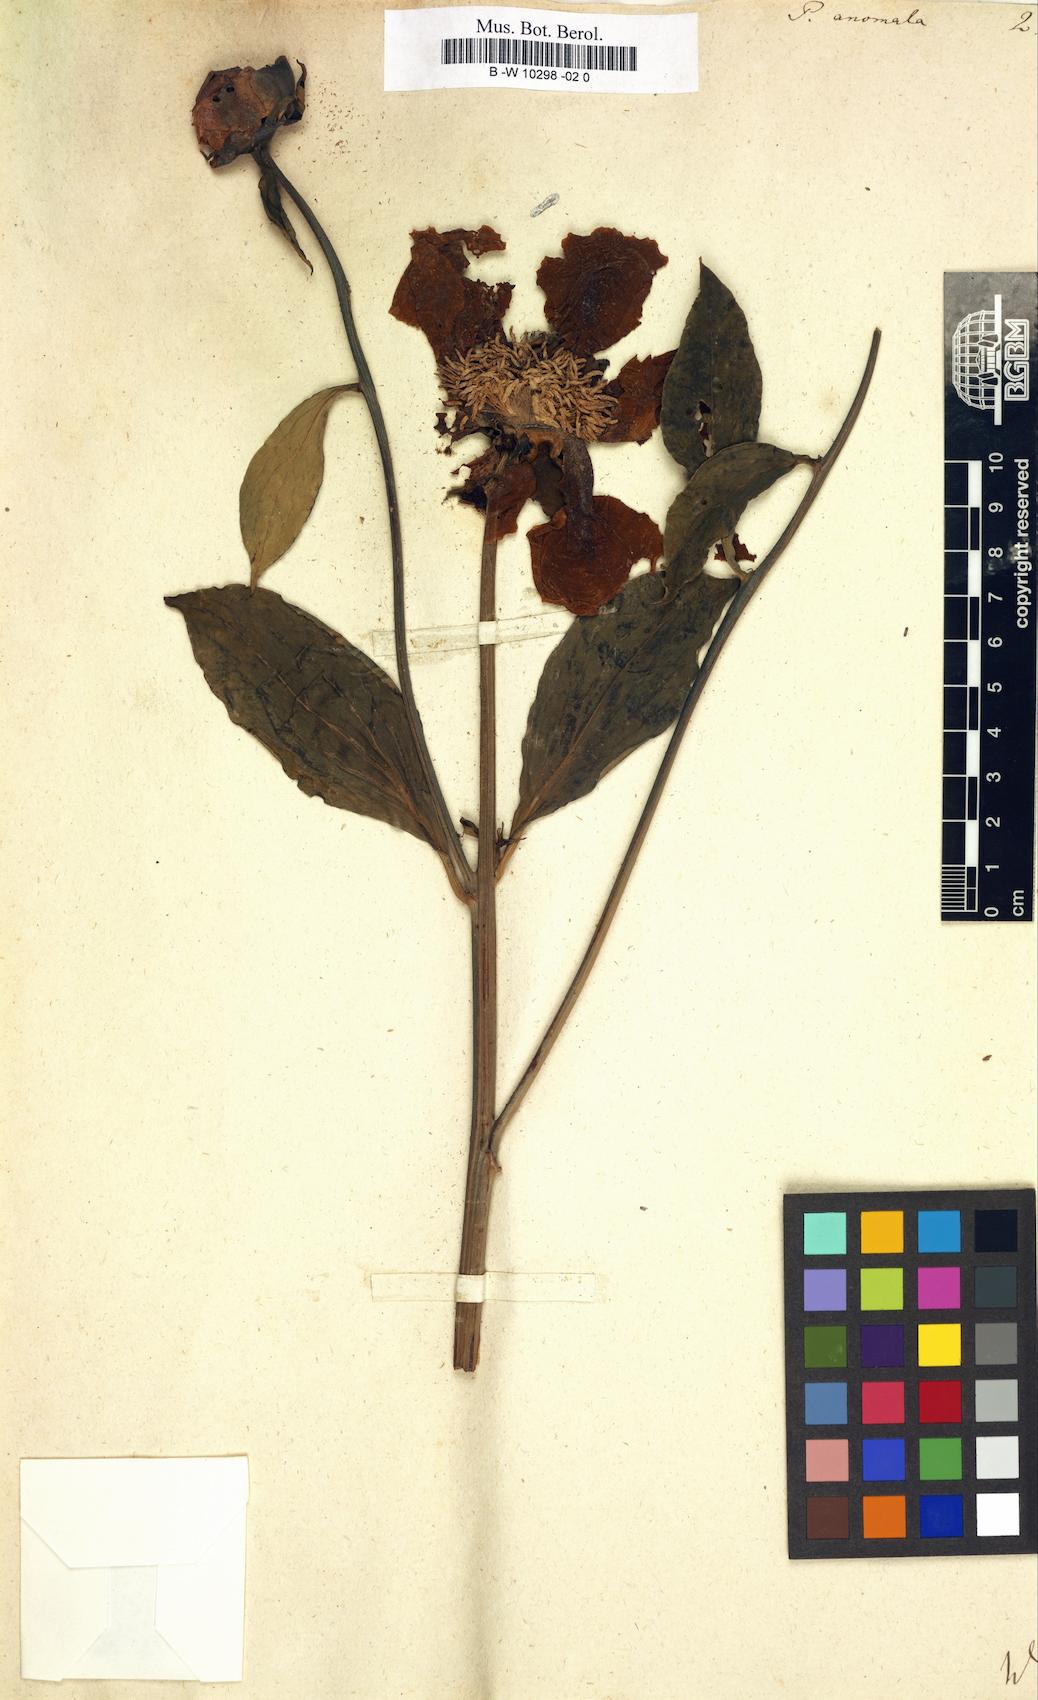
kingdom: Plantae
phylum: Tracheophyta
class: Magnoliopsida
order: Saxifragales
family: Paeoniaceae
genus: Paeonia
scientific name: Paeonia anomala
